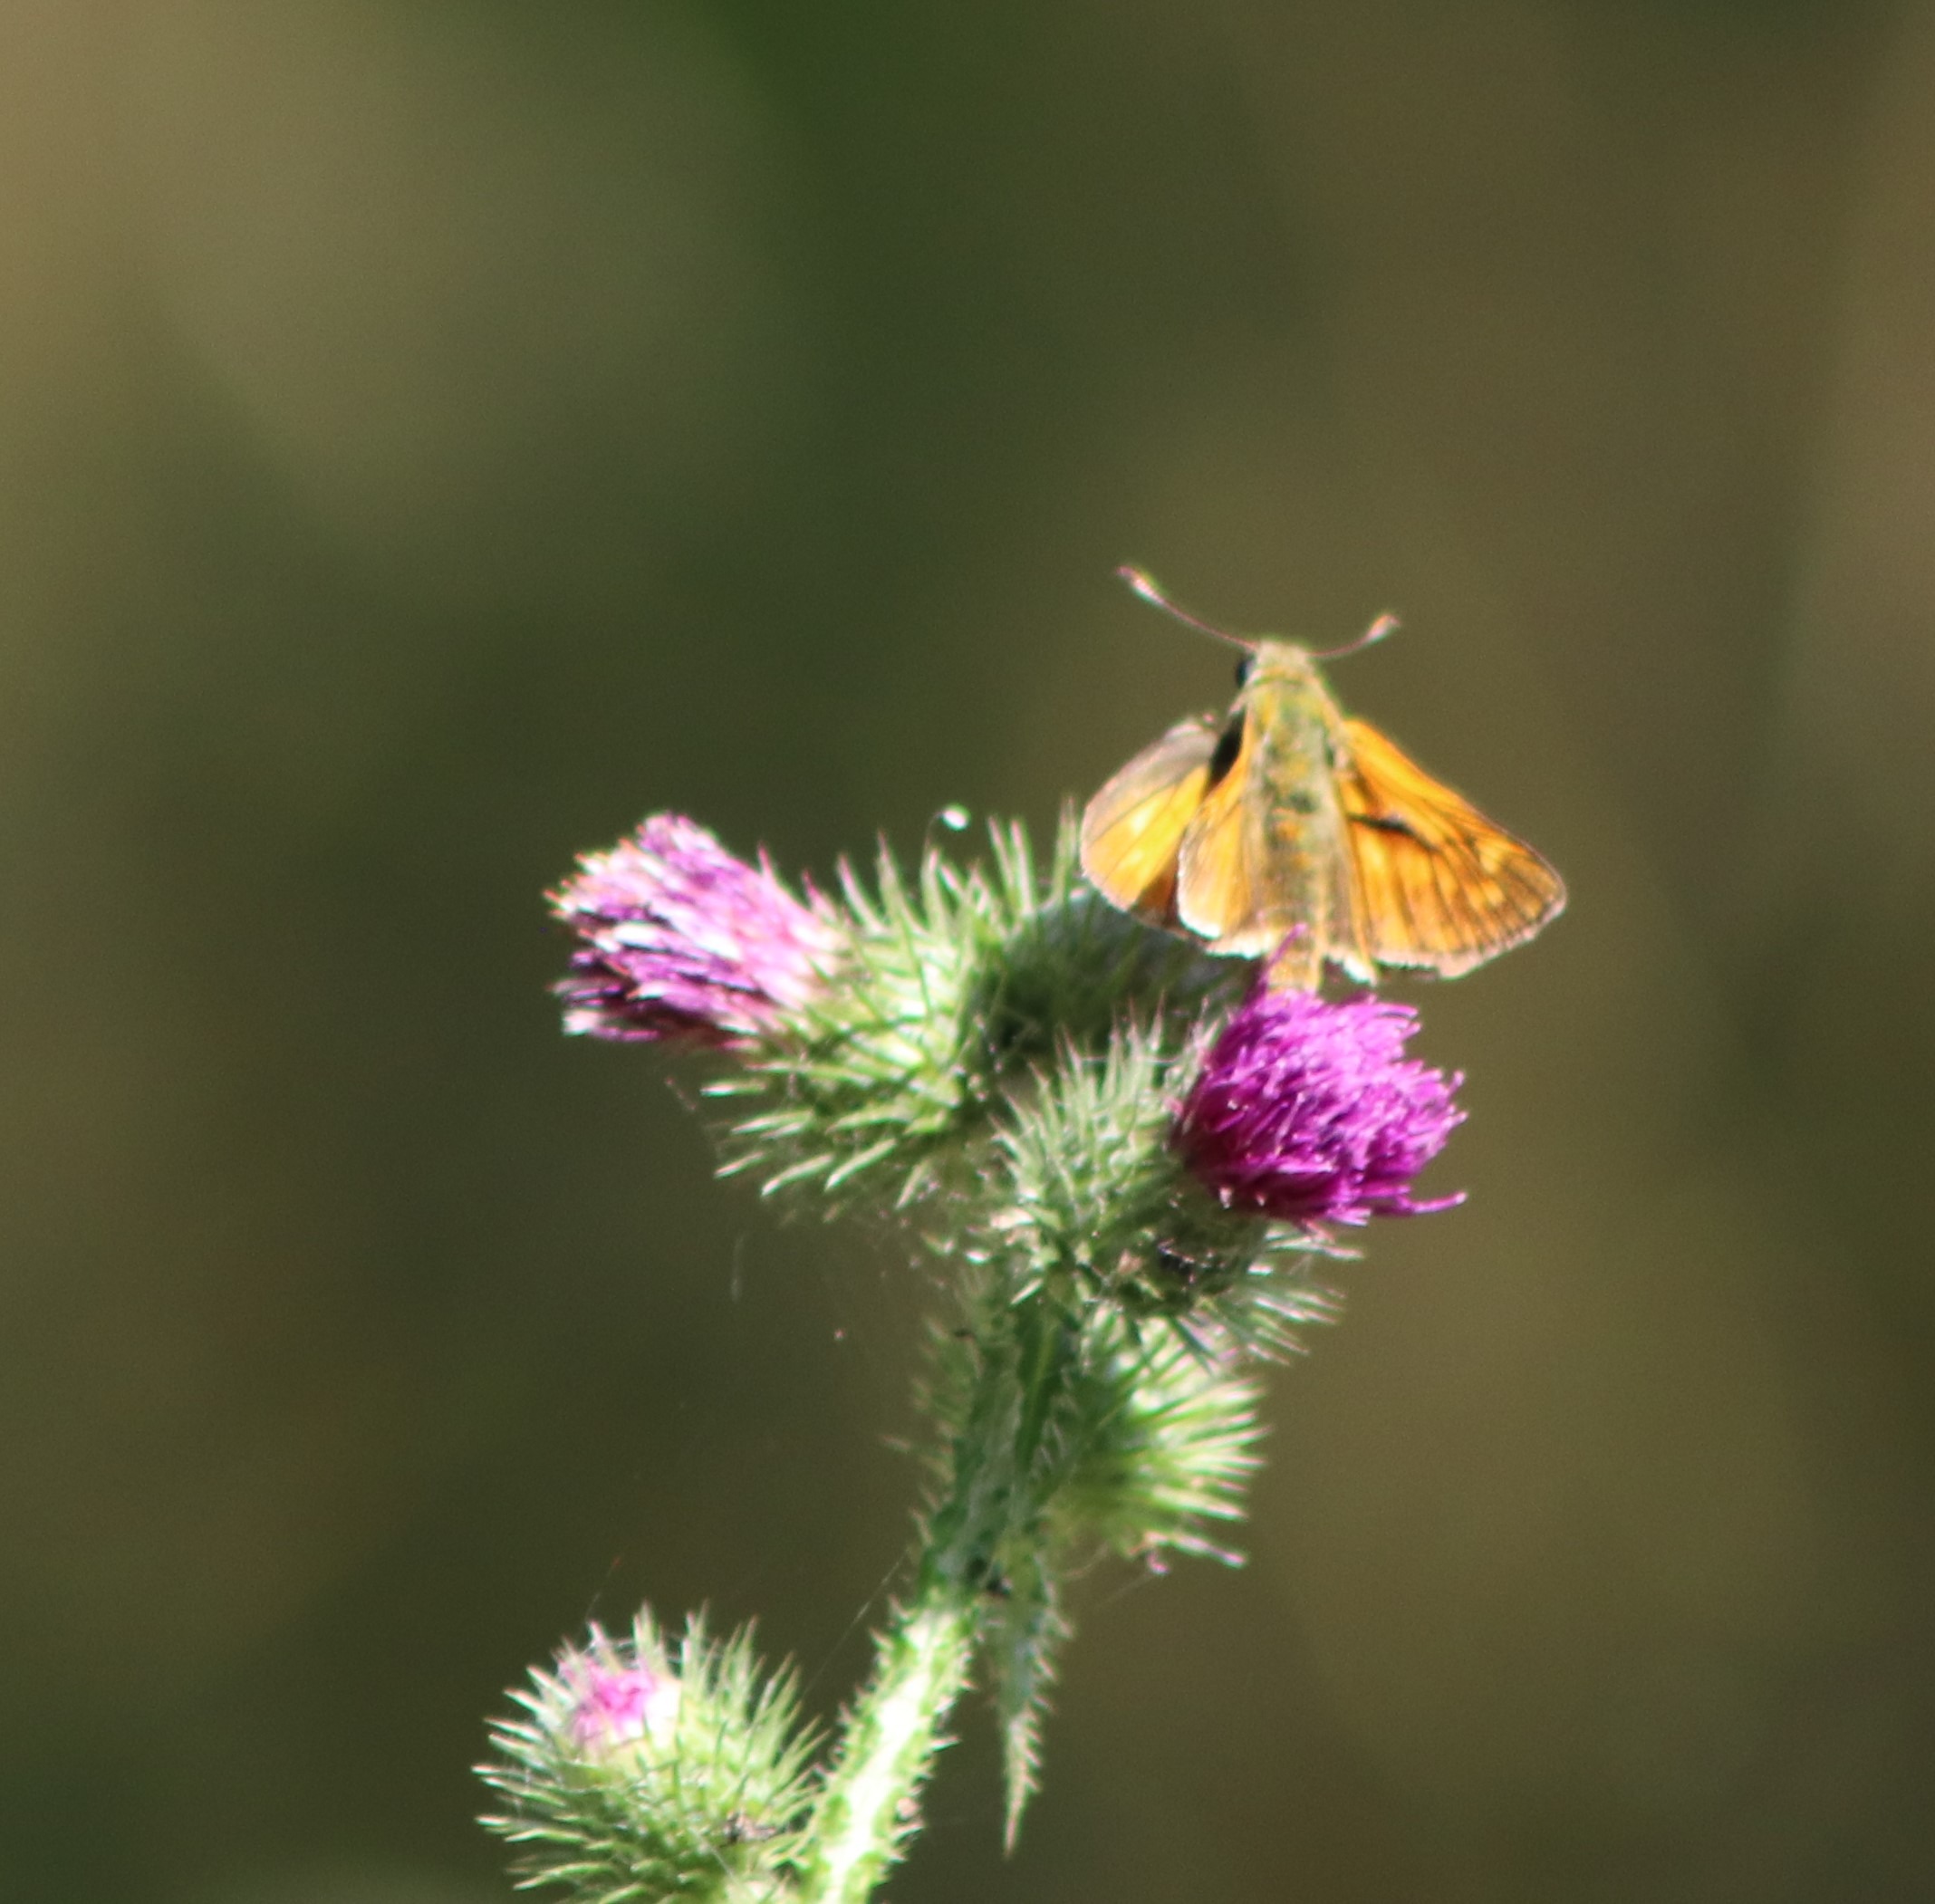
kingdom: Animalia
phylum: Arthropoda
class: Insecta
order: Lepidoptera
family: Hesperiidae
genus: Ochlodes
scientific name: Ochlodes venata
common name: Stor bredpande
